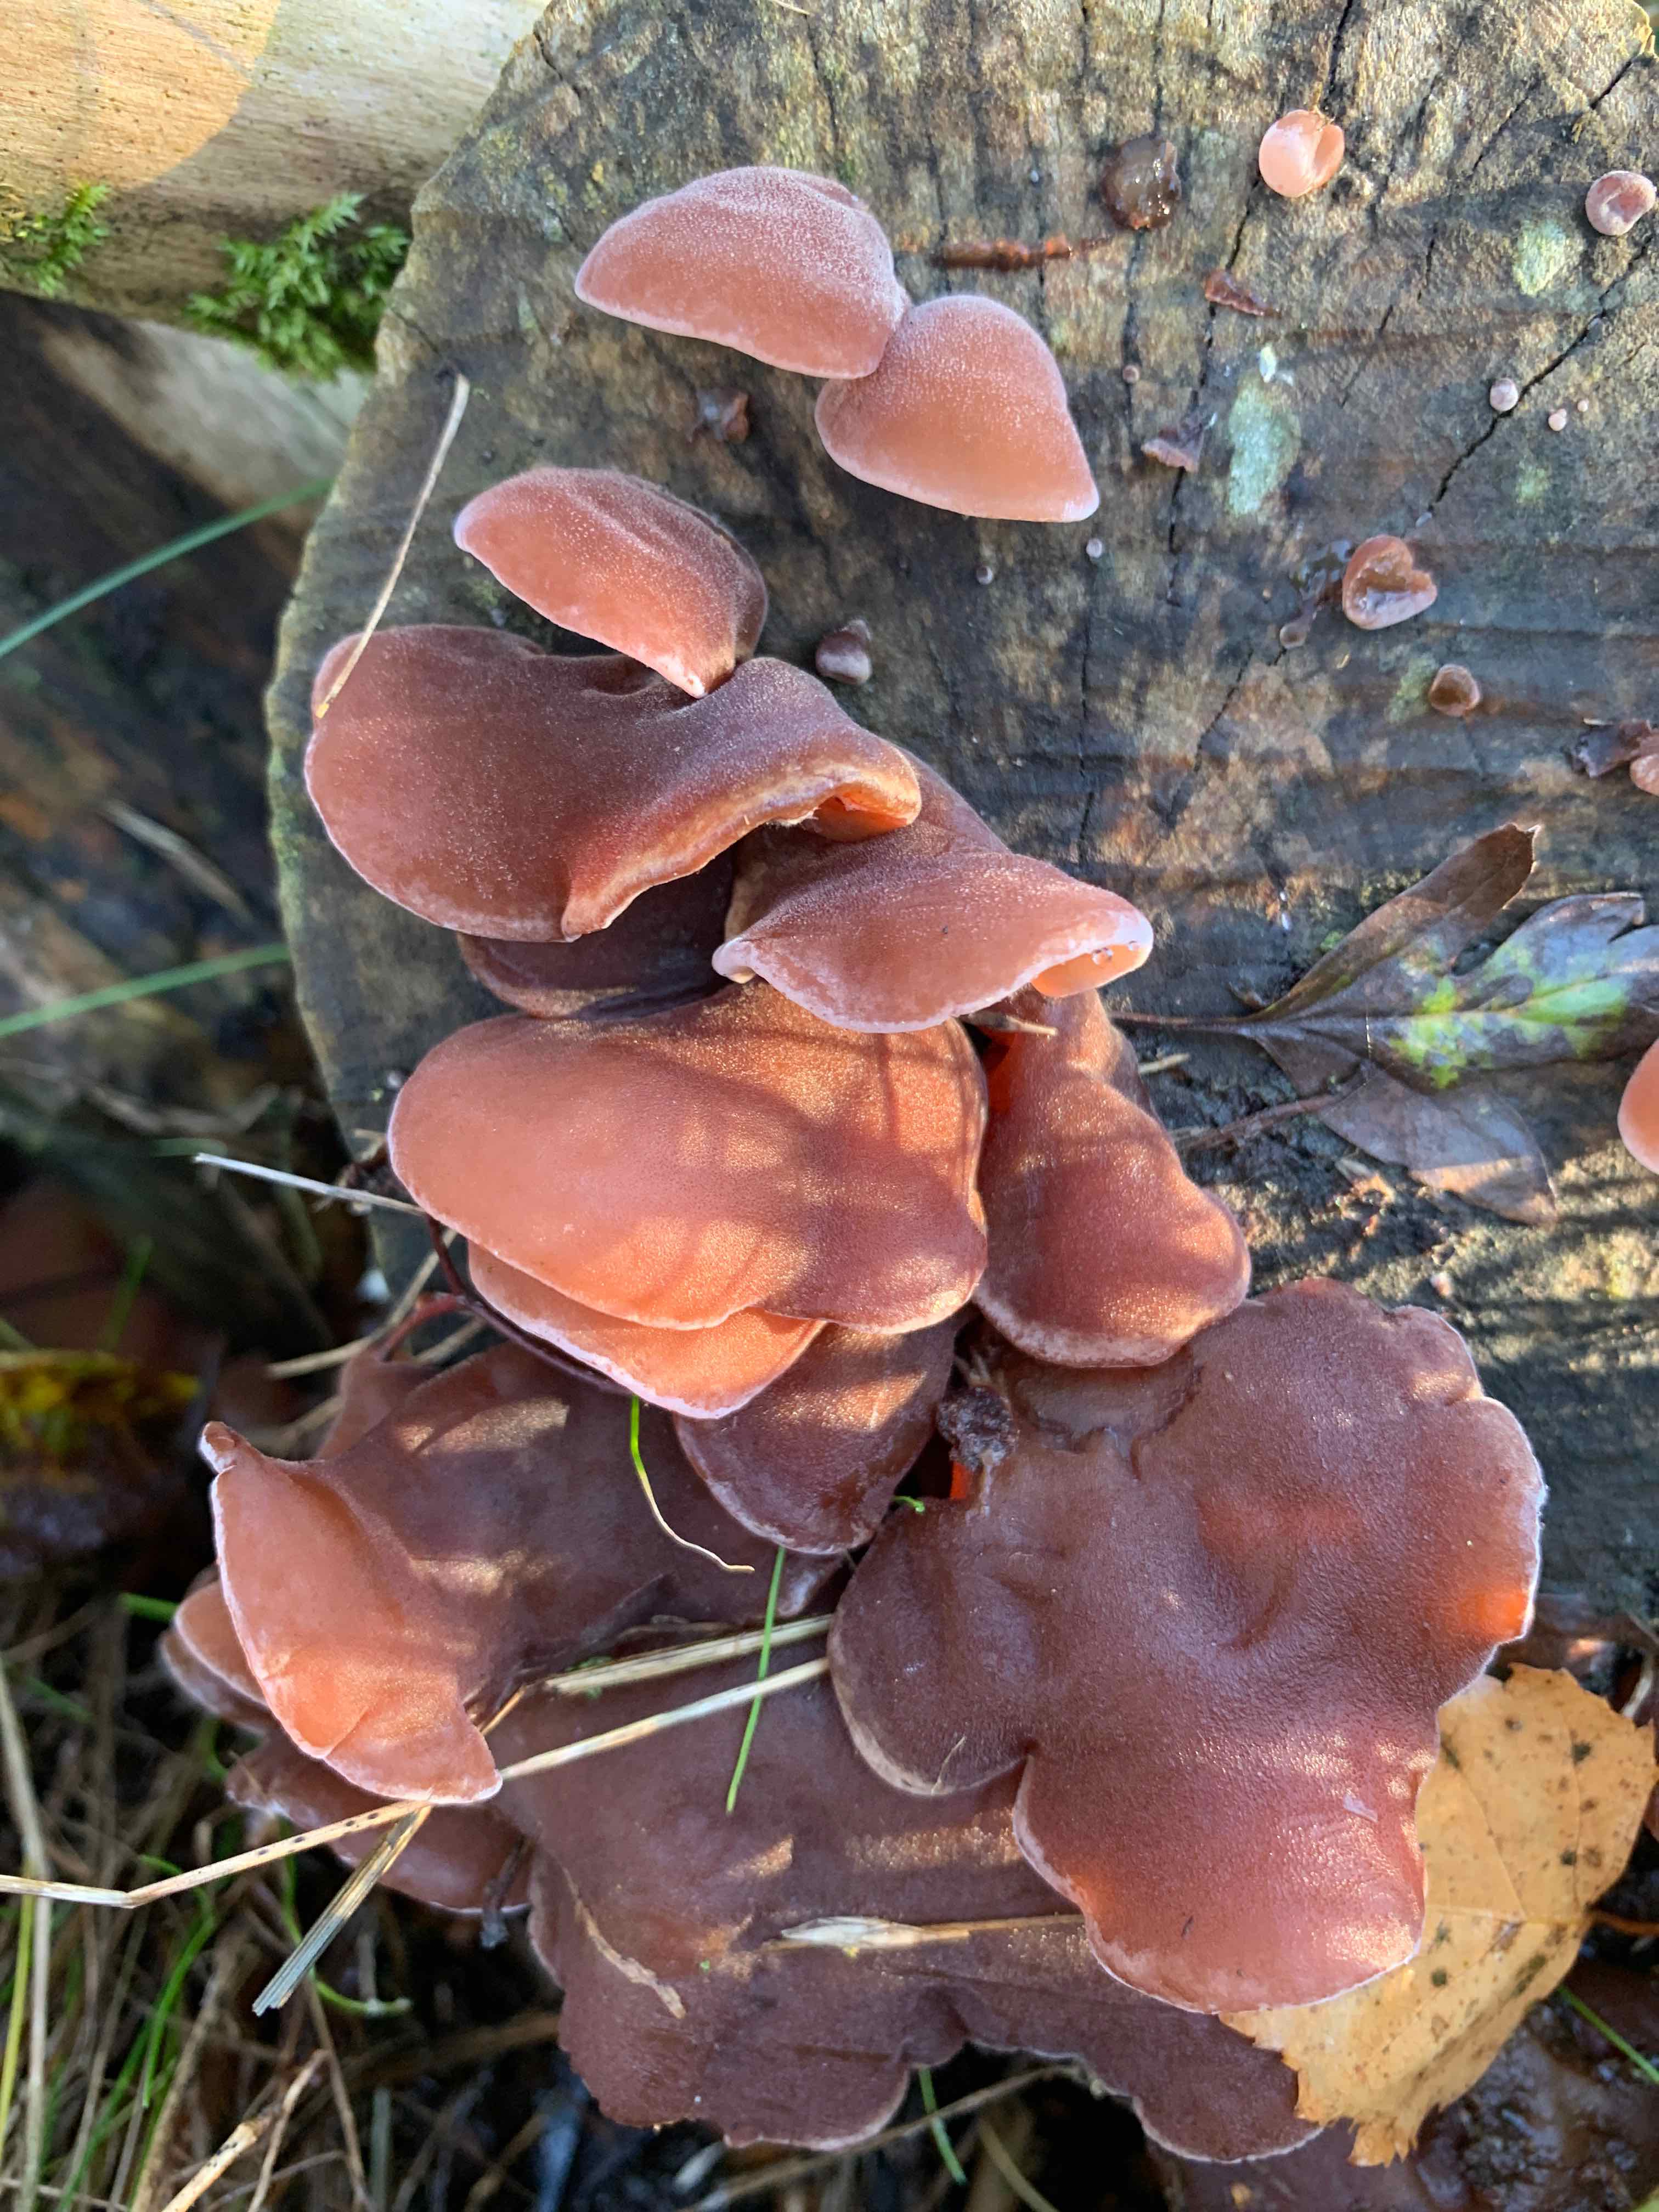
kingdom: Fungi
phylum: Basidiomycota
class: Agaricomycetes
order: Auriculariales
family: Auriculariaceae
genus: Auricularia
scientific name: Auricularia auricula-judae
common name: almindelig judasøre
